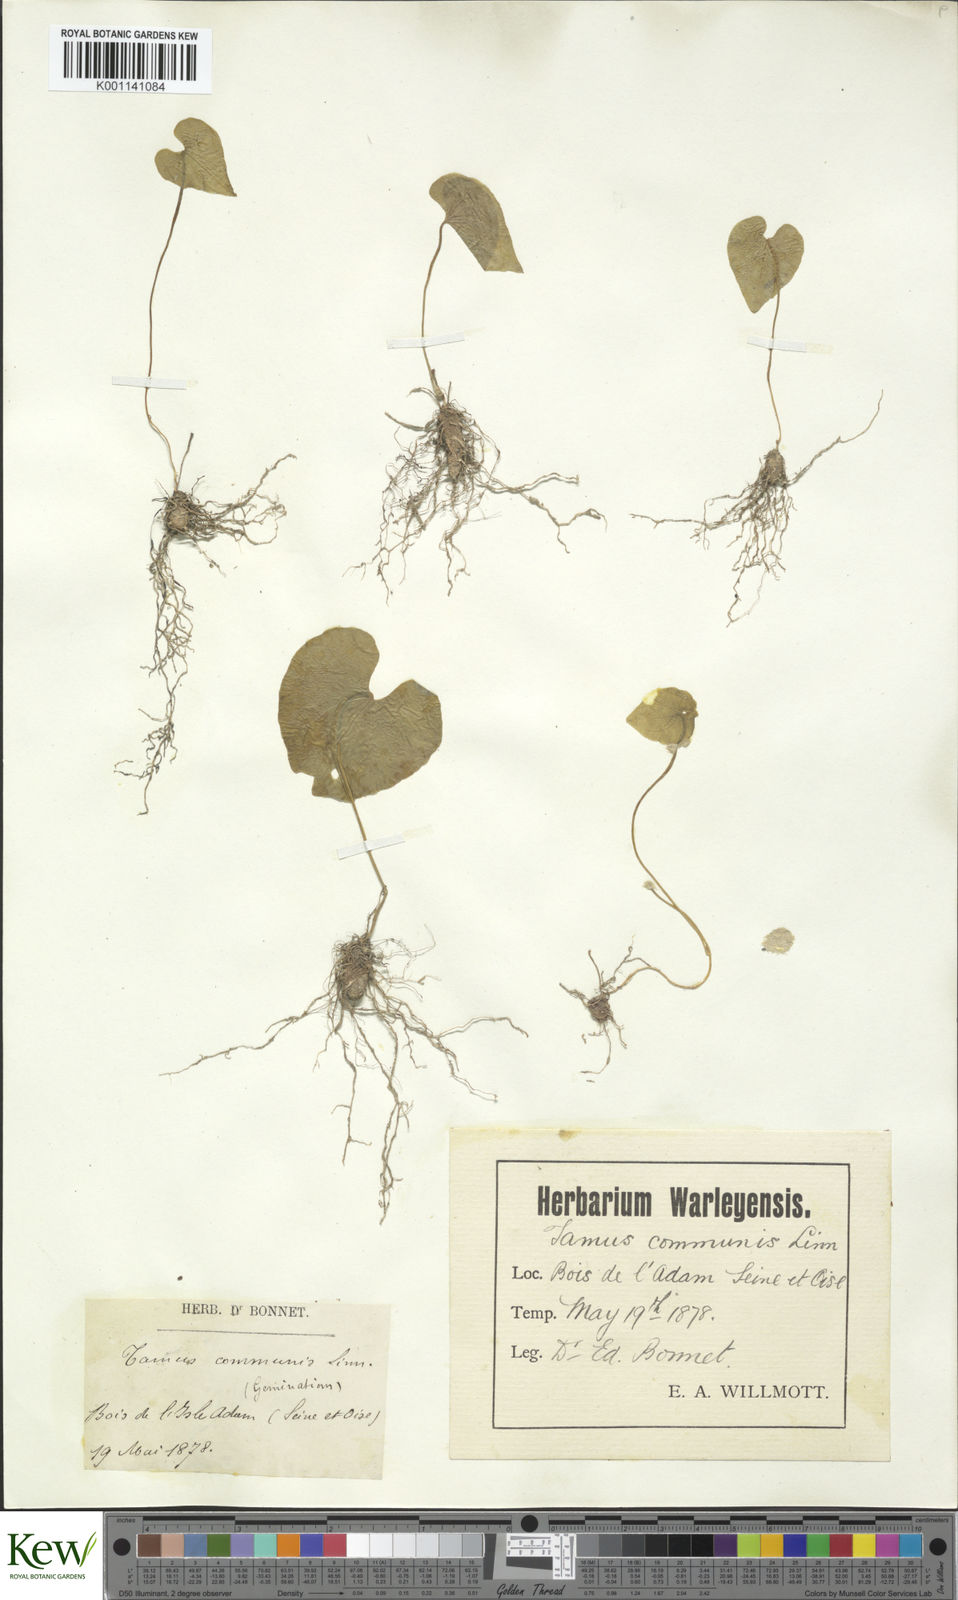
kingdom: Plantae
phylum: Tracheophyta
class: Liliopsida
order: Dioscoreales
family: Dioscoreaceae
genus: Dioscorea
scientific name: Dioscorea communis
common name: Black-bindweed
